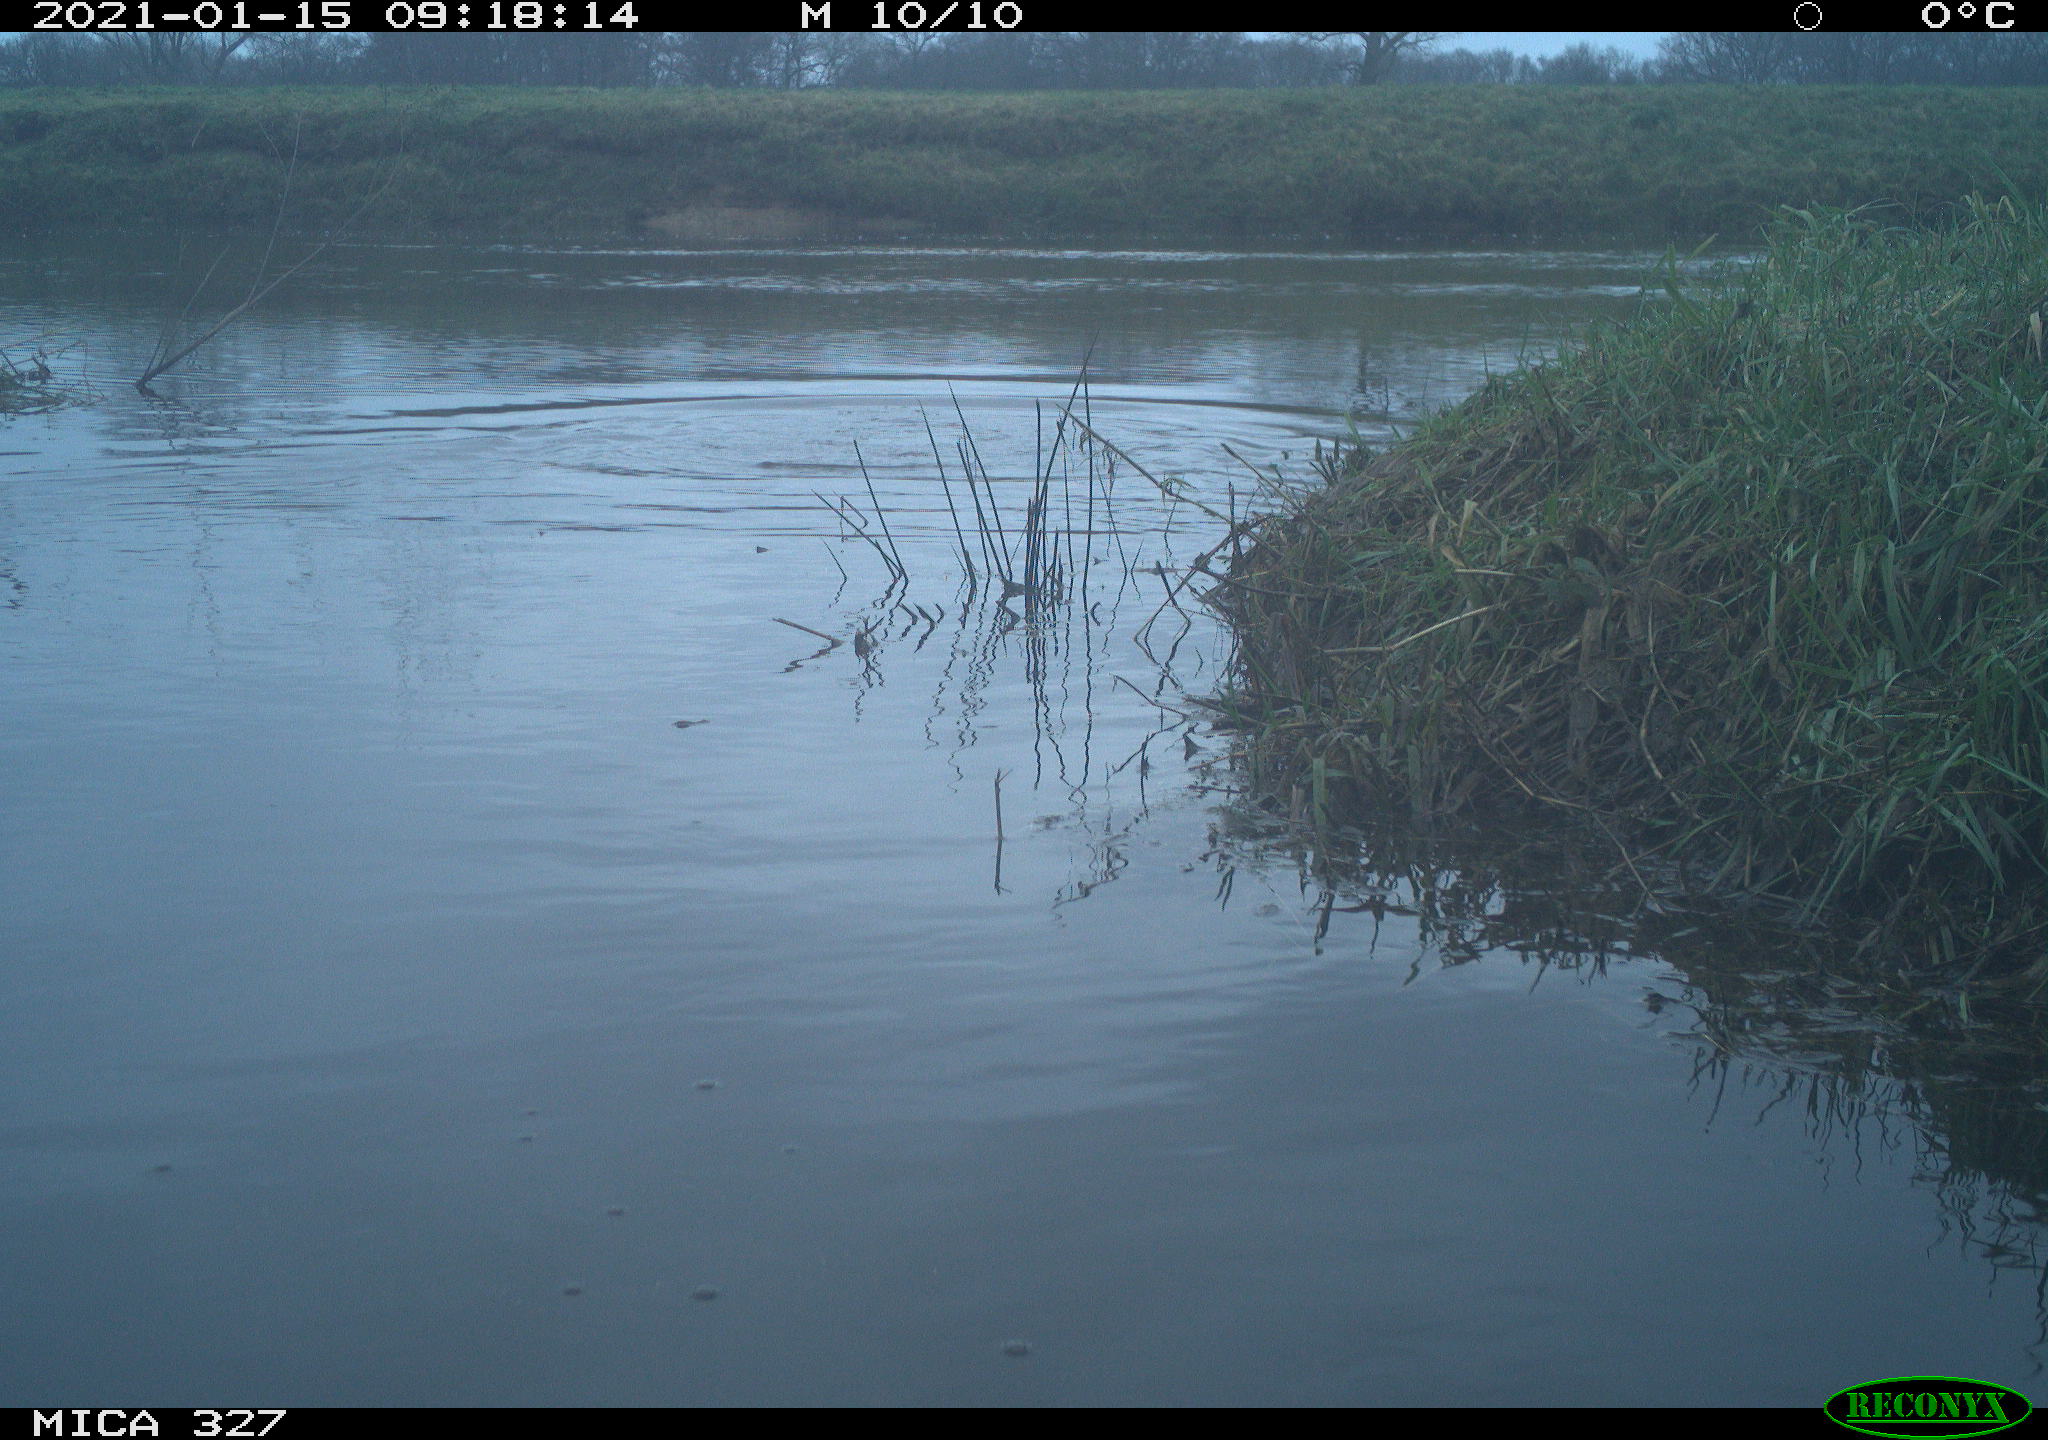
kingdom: Animalia
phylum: Chordata
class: Aves
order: Suliformes
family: Phalacrocoracidae
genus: Phalacrocorax
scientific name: Phalacrocorax carbo
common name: Great cormorant
